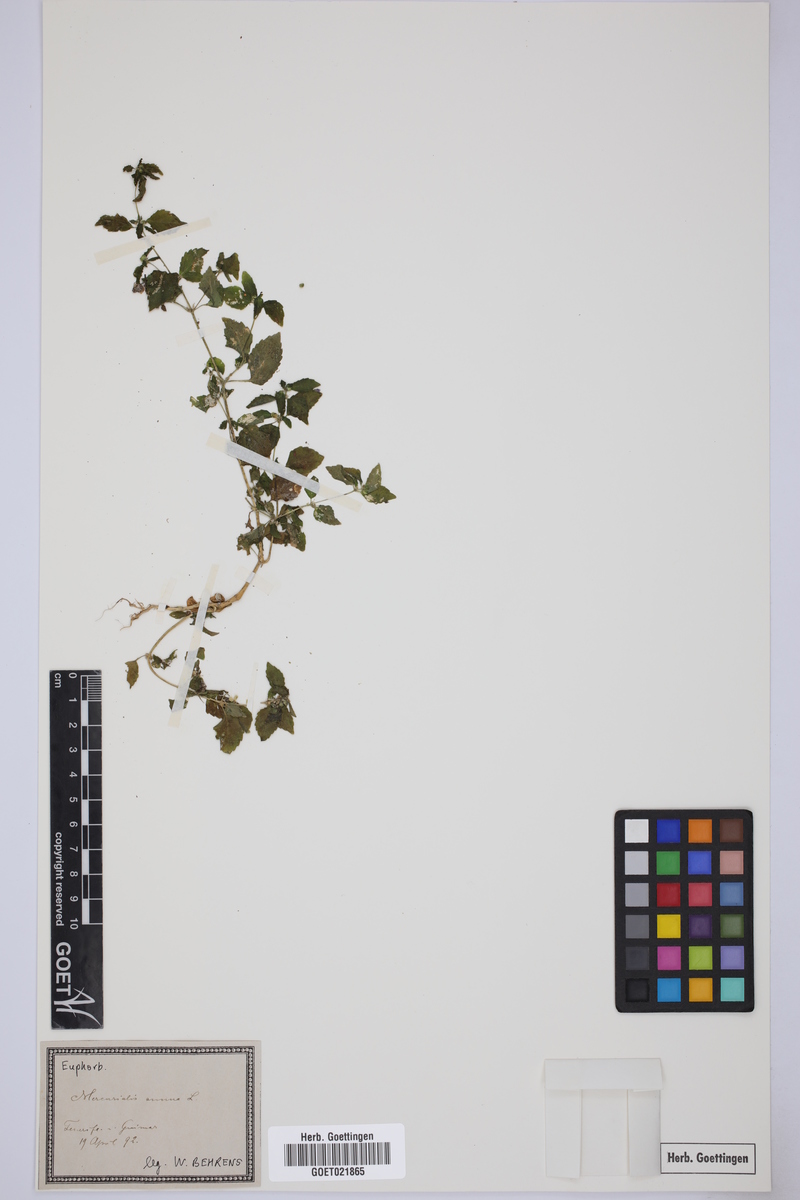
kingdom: Plantae
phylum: Tracheophyta
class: Magnoliopsida
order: Malpighiales
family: Euphorbiaceae
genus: Mercurialis
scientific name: Mercurialis annua
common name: Annual mercury
